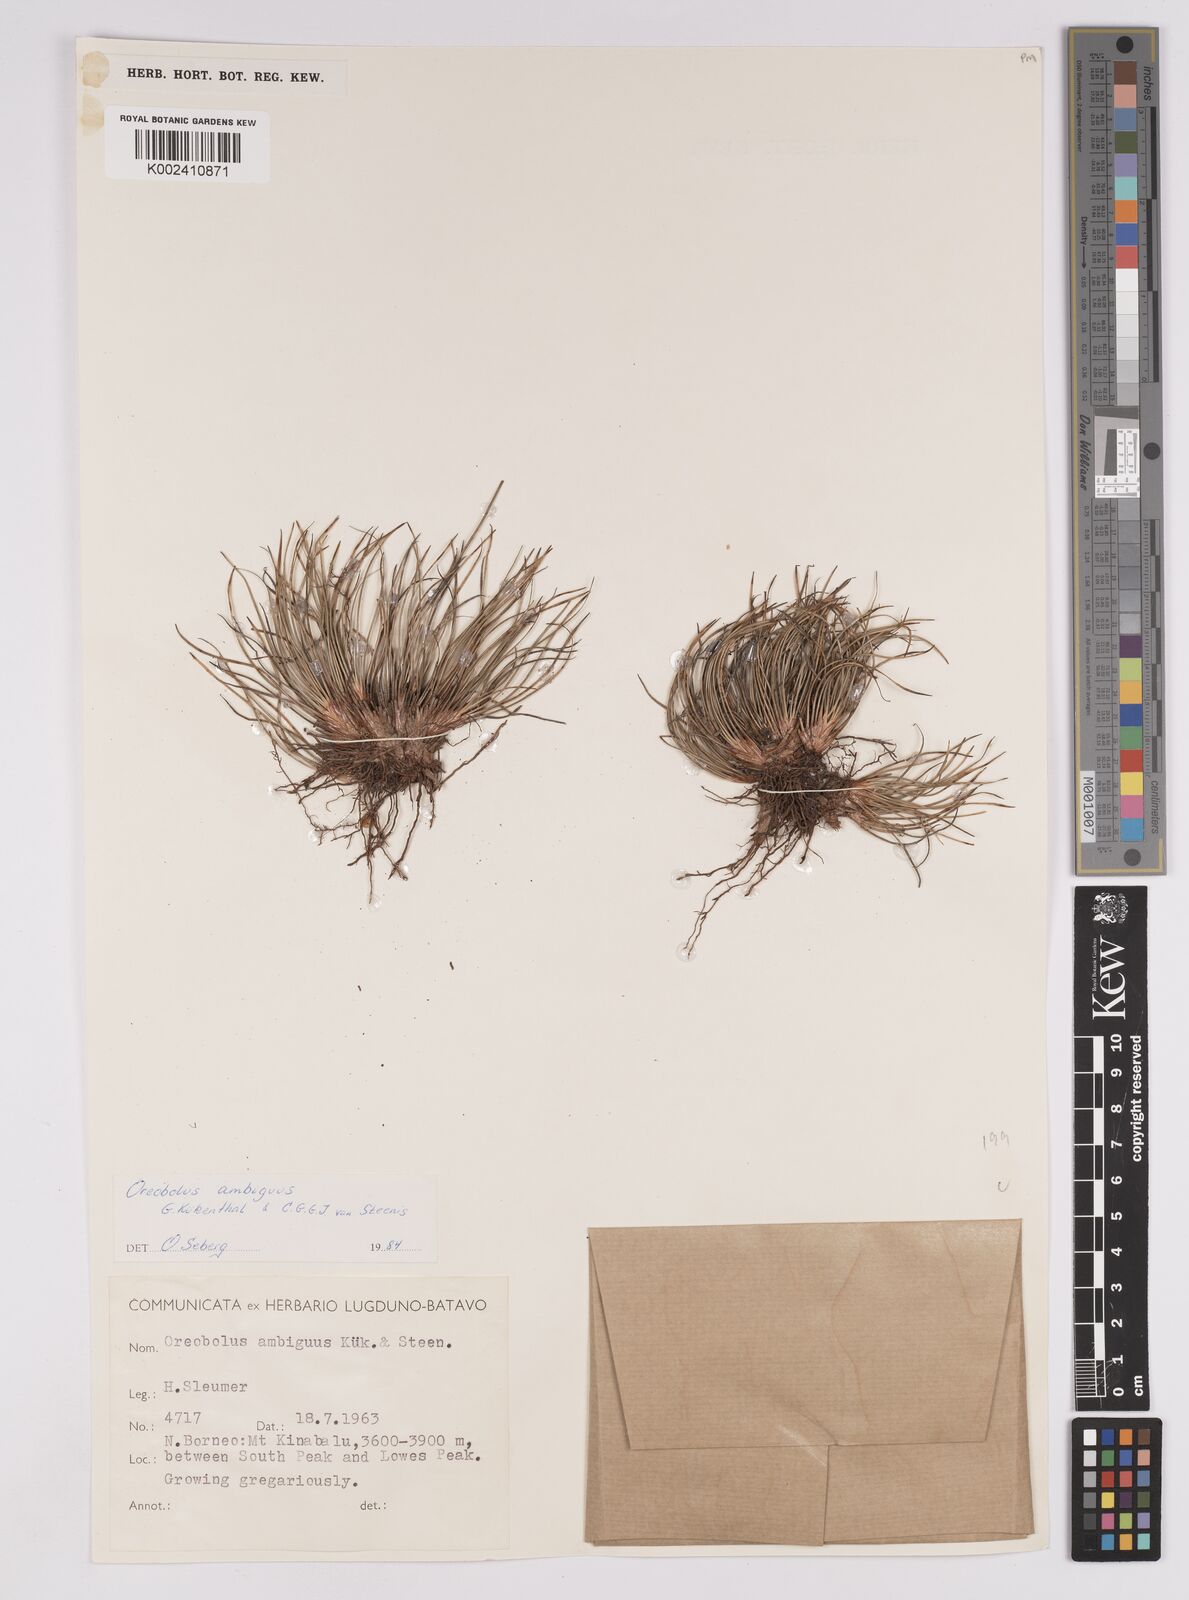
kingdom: Plantae
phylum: Tracheophyta
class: Liliopsida
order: Poales
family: Cyperaceae
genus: Oreobolus
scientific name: Oreobolus ambiguus
